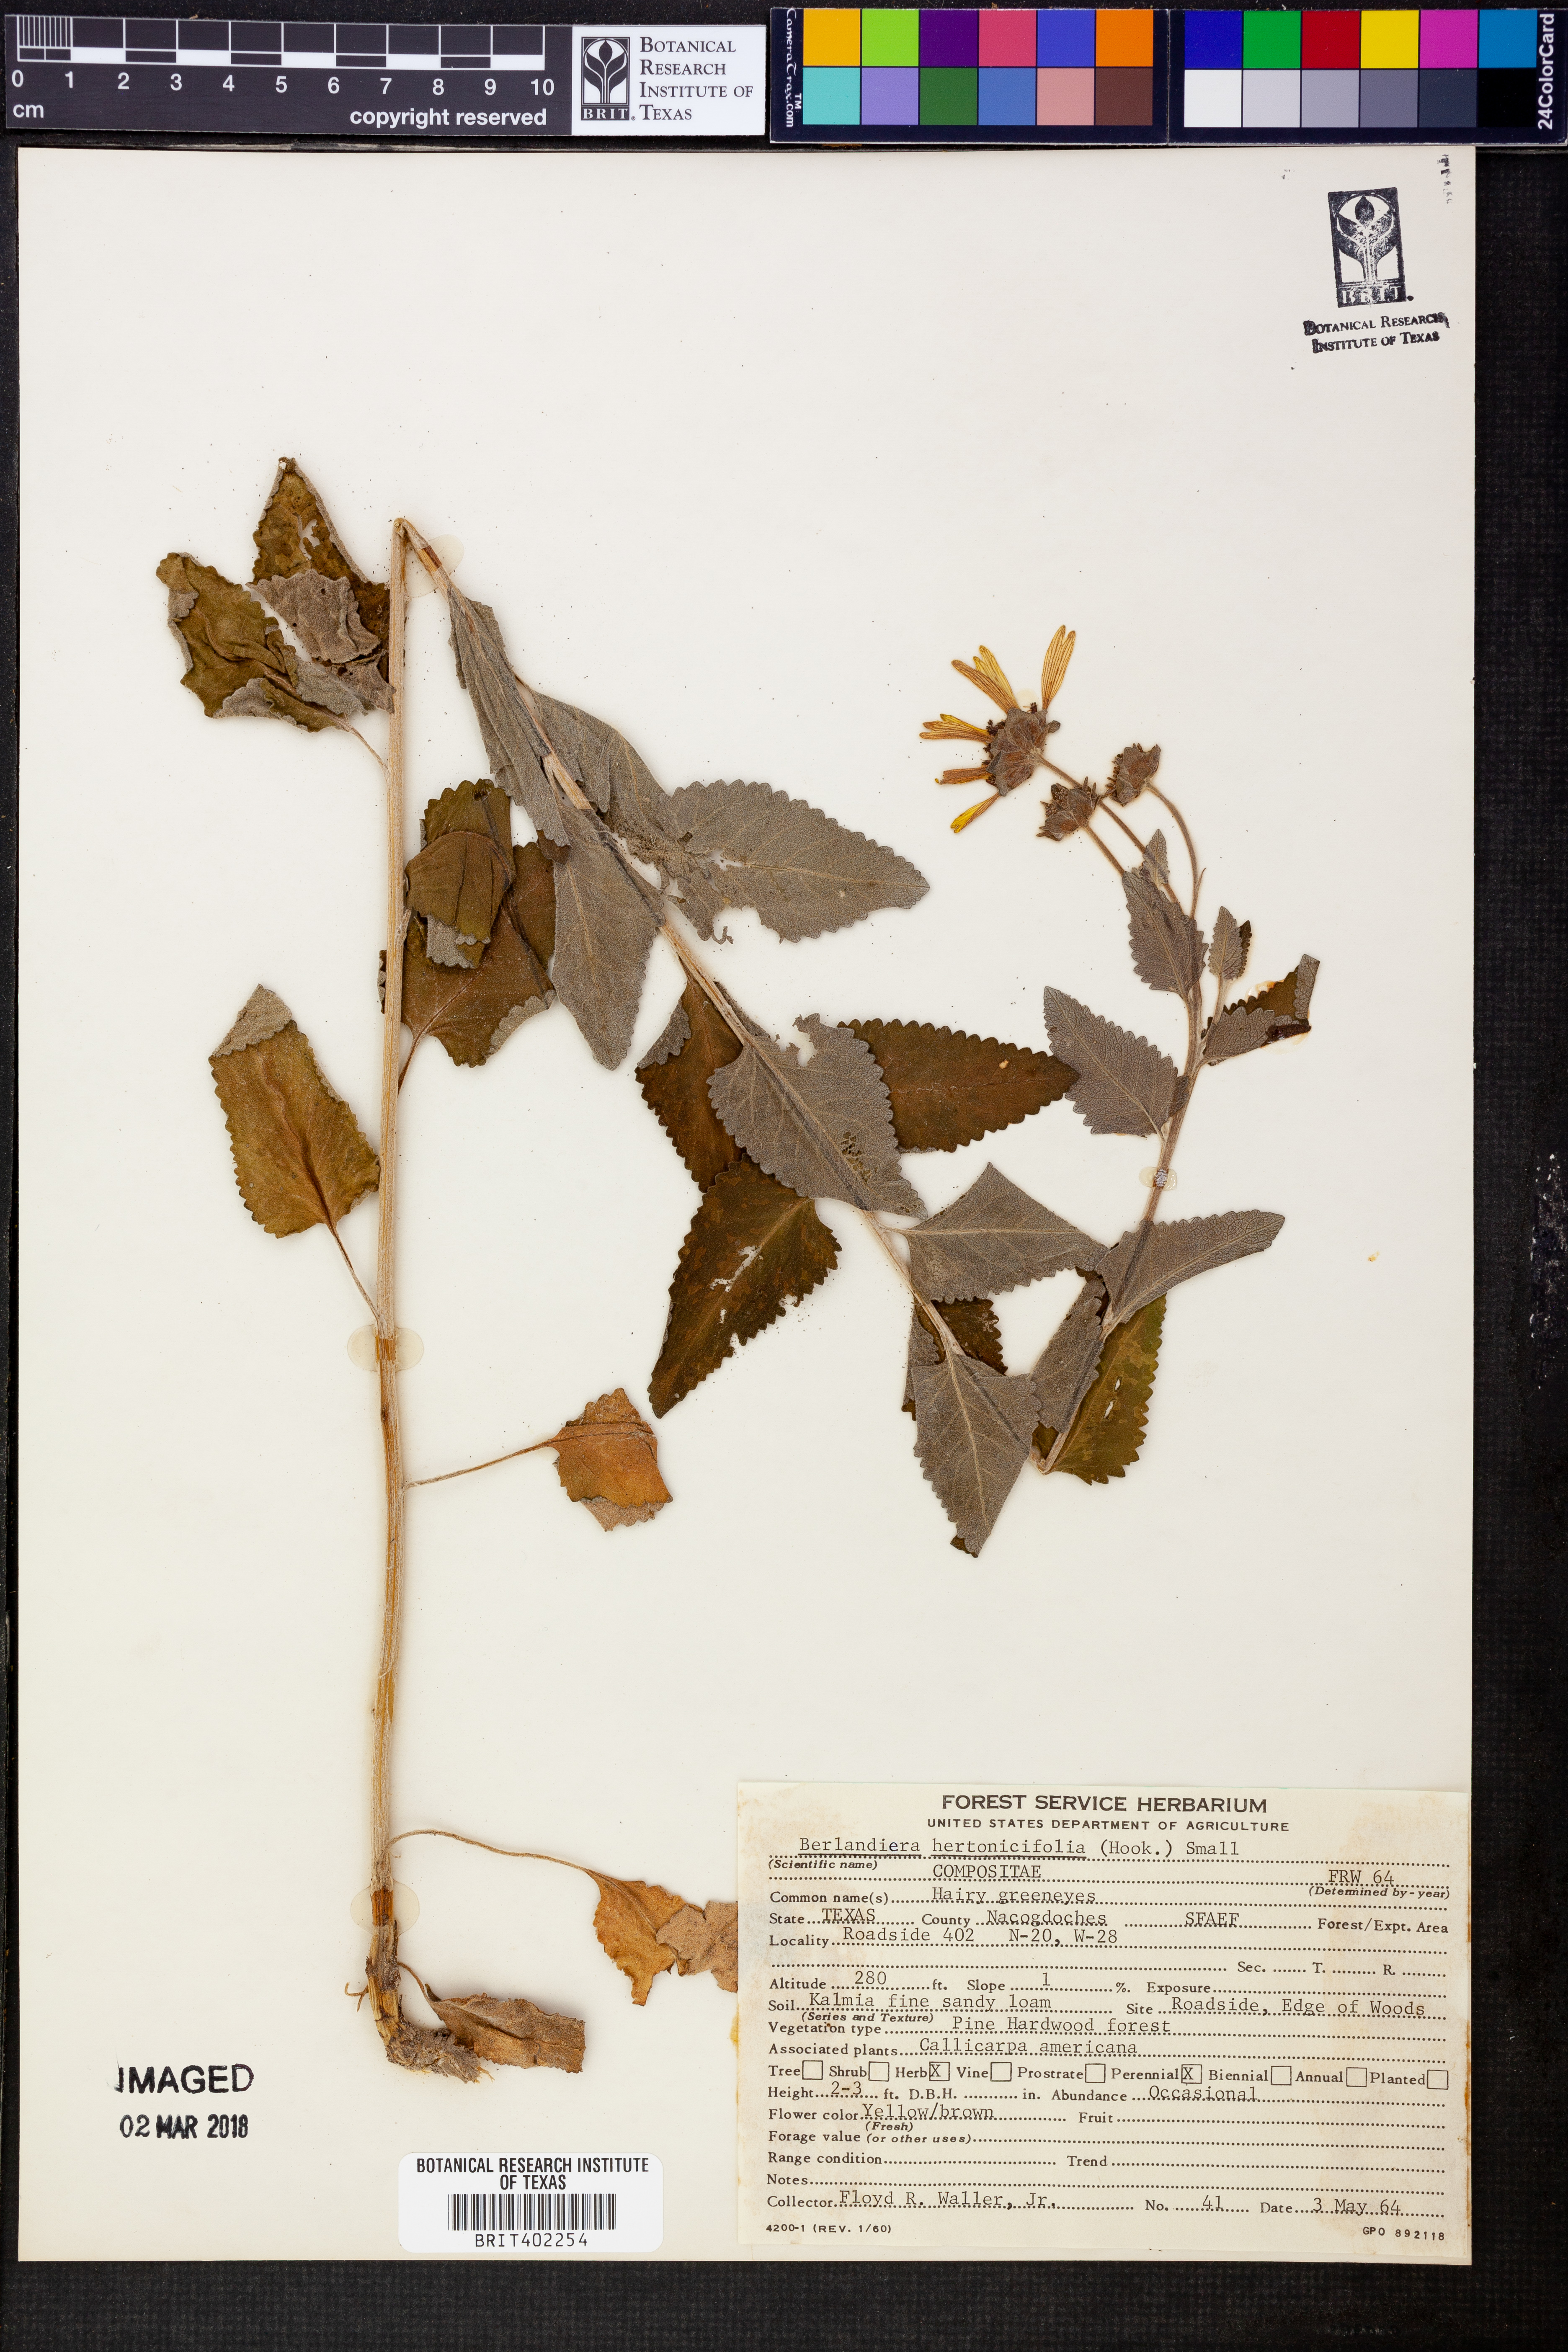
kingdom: Plantae
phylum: Tracheophyta
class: Magnoliopsida
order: Asterales
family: Asteraceae
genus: Berlandiera
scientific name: Berlandiera betonicifolia
